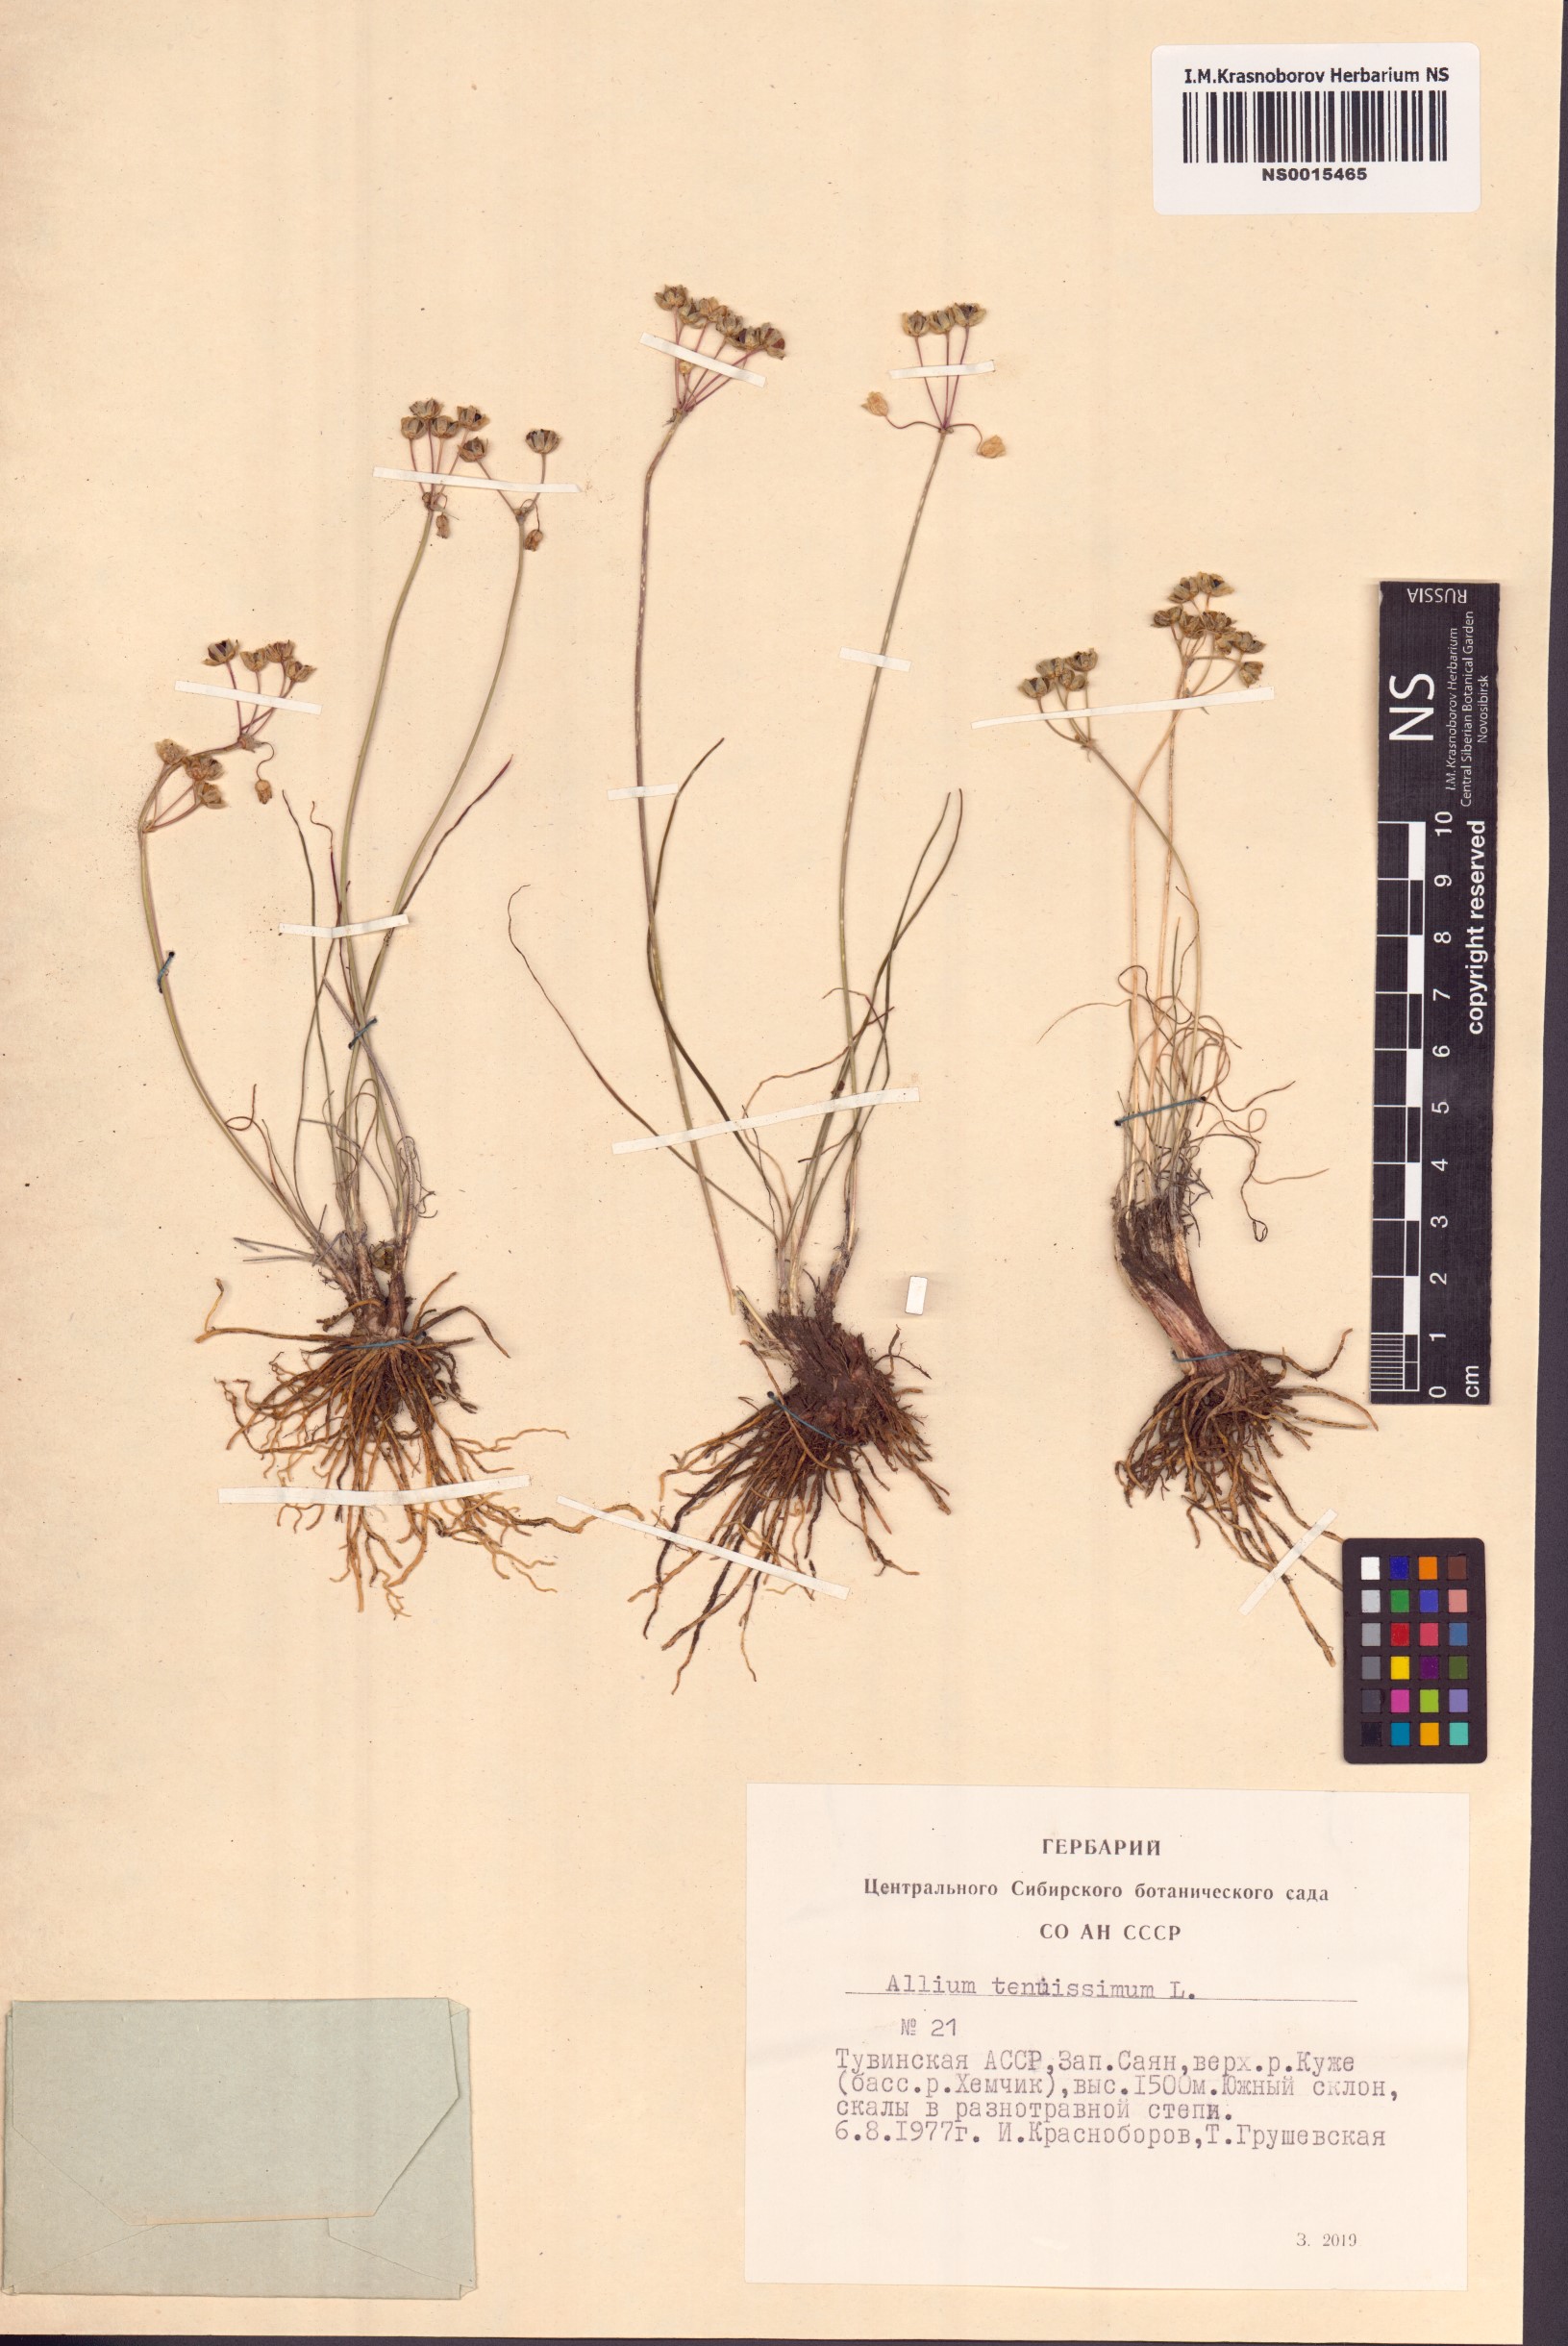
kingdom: Plantae
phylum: Tracheophyta
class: Liliopsida
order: Asparagales
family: Amaryllidaceae
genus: Allium
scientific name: Allium tenuissimum
